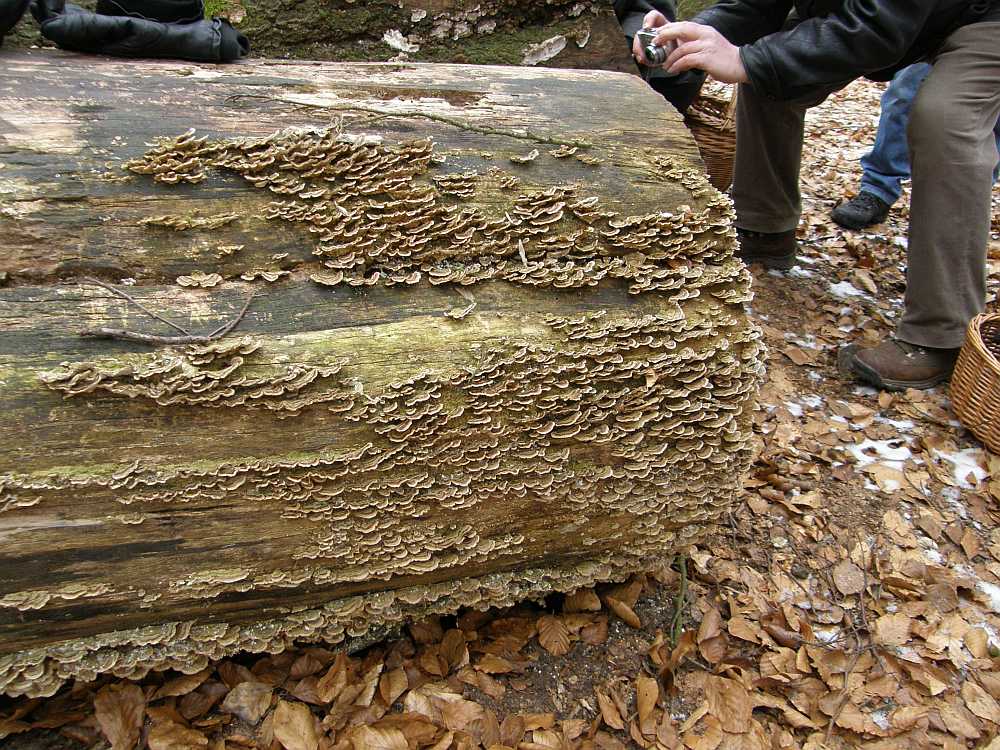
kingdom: Fungi
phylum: Basidiomycota
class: Agaricomycetes
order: Polyporales
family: Polyporaceae
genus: Trametes
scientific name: Trametes versicolor
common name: broget læderporesvamp
